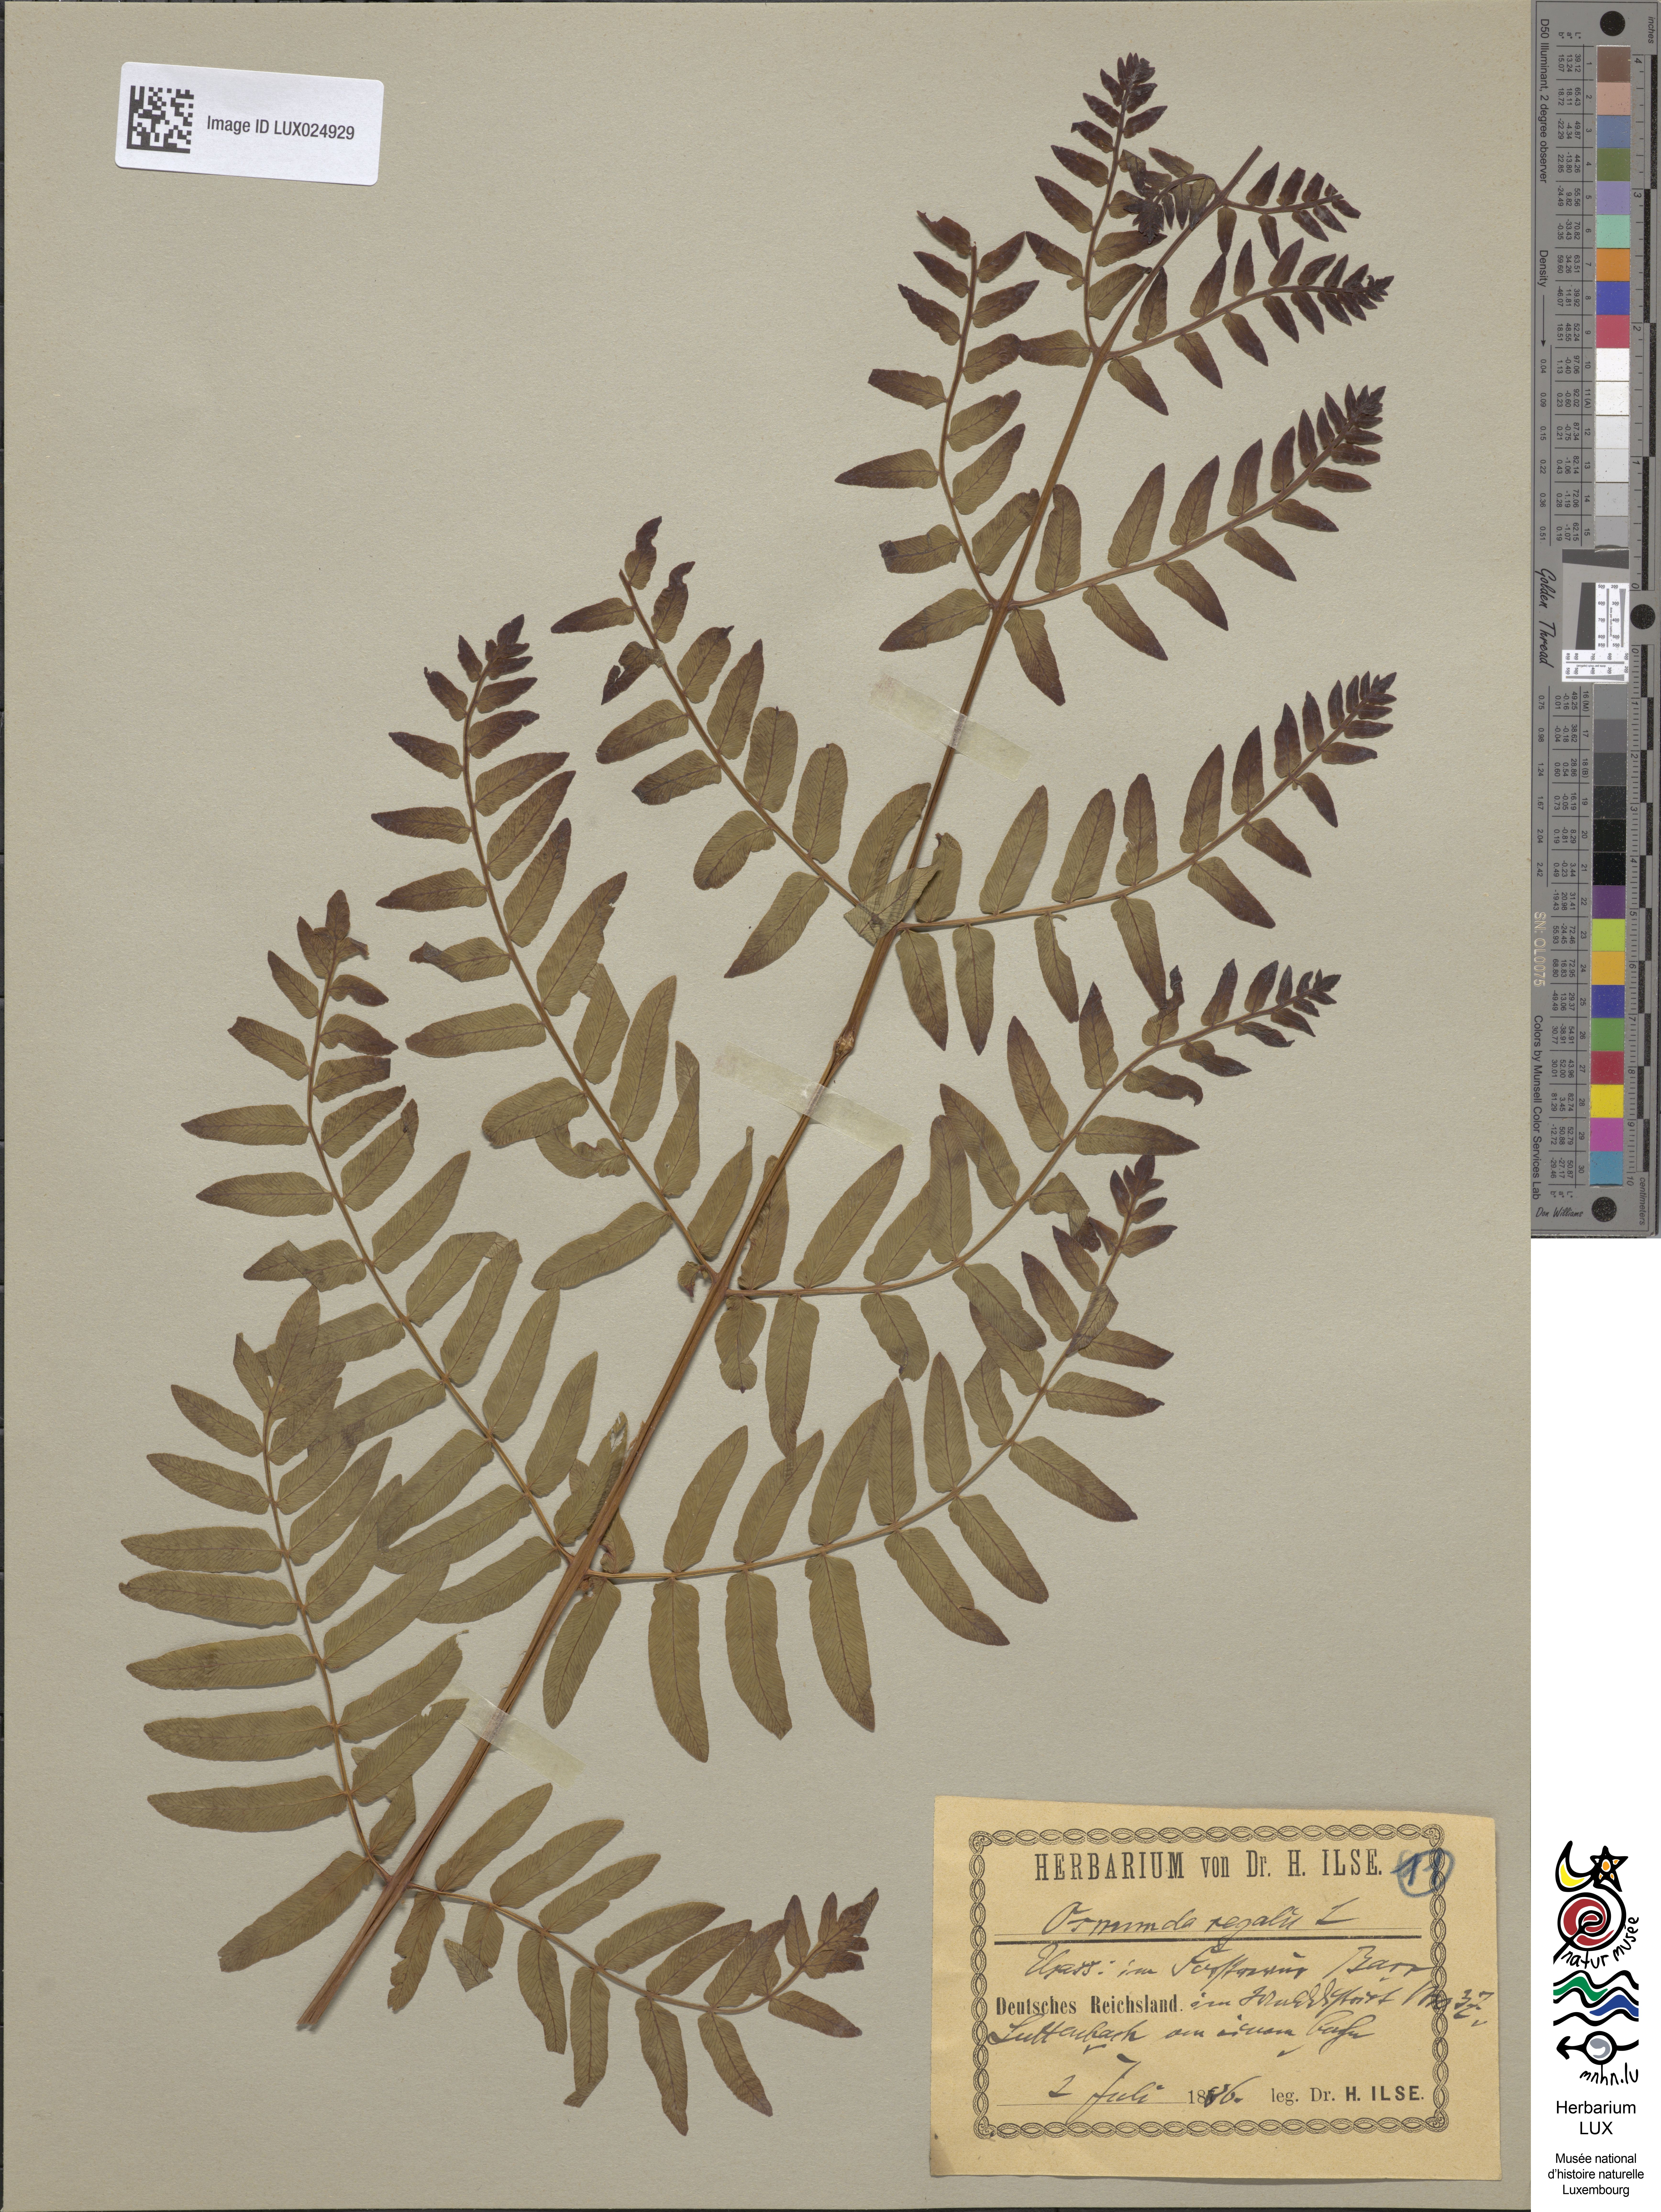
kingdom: Plantae
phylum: Tracheophyta
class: Polypodiopsida
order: Osmundales
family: Osmundaceae
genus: Osmunda
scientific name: Osmunda regalis
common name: Royal fern
